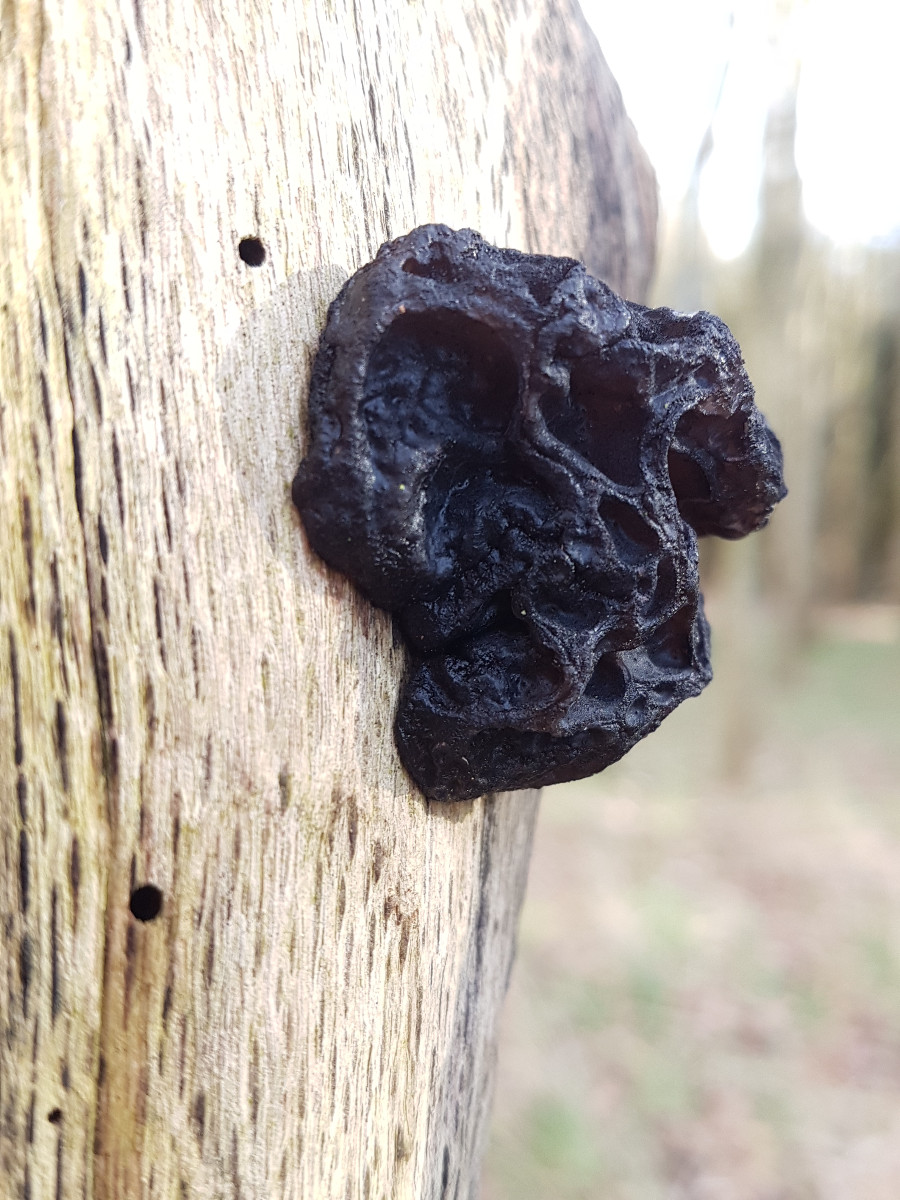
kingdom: Fungi
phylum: Basidiomycota
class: Agaricomycetes
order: Auriculariales
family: Auriculariaceae
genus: Exidia
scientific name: Exidia glandulosa
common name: ege-bævretop
